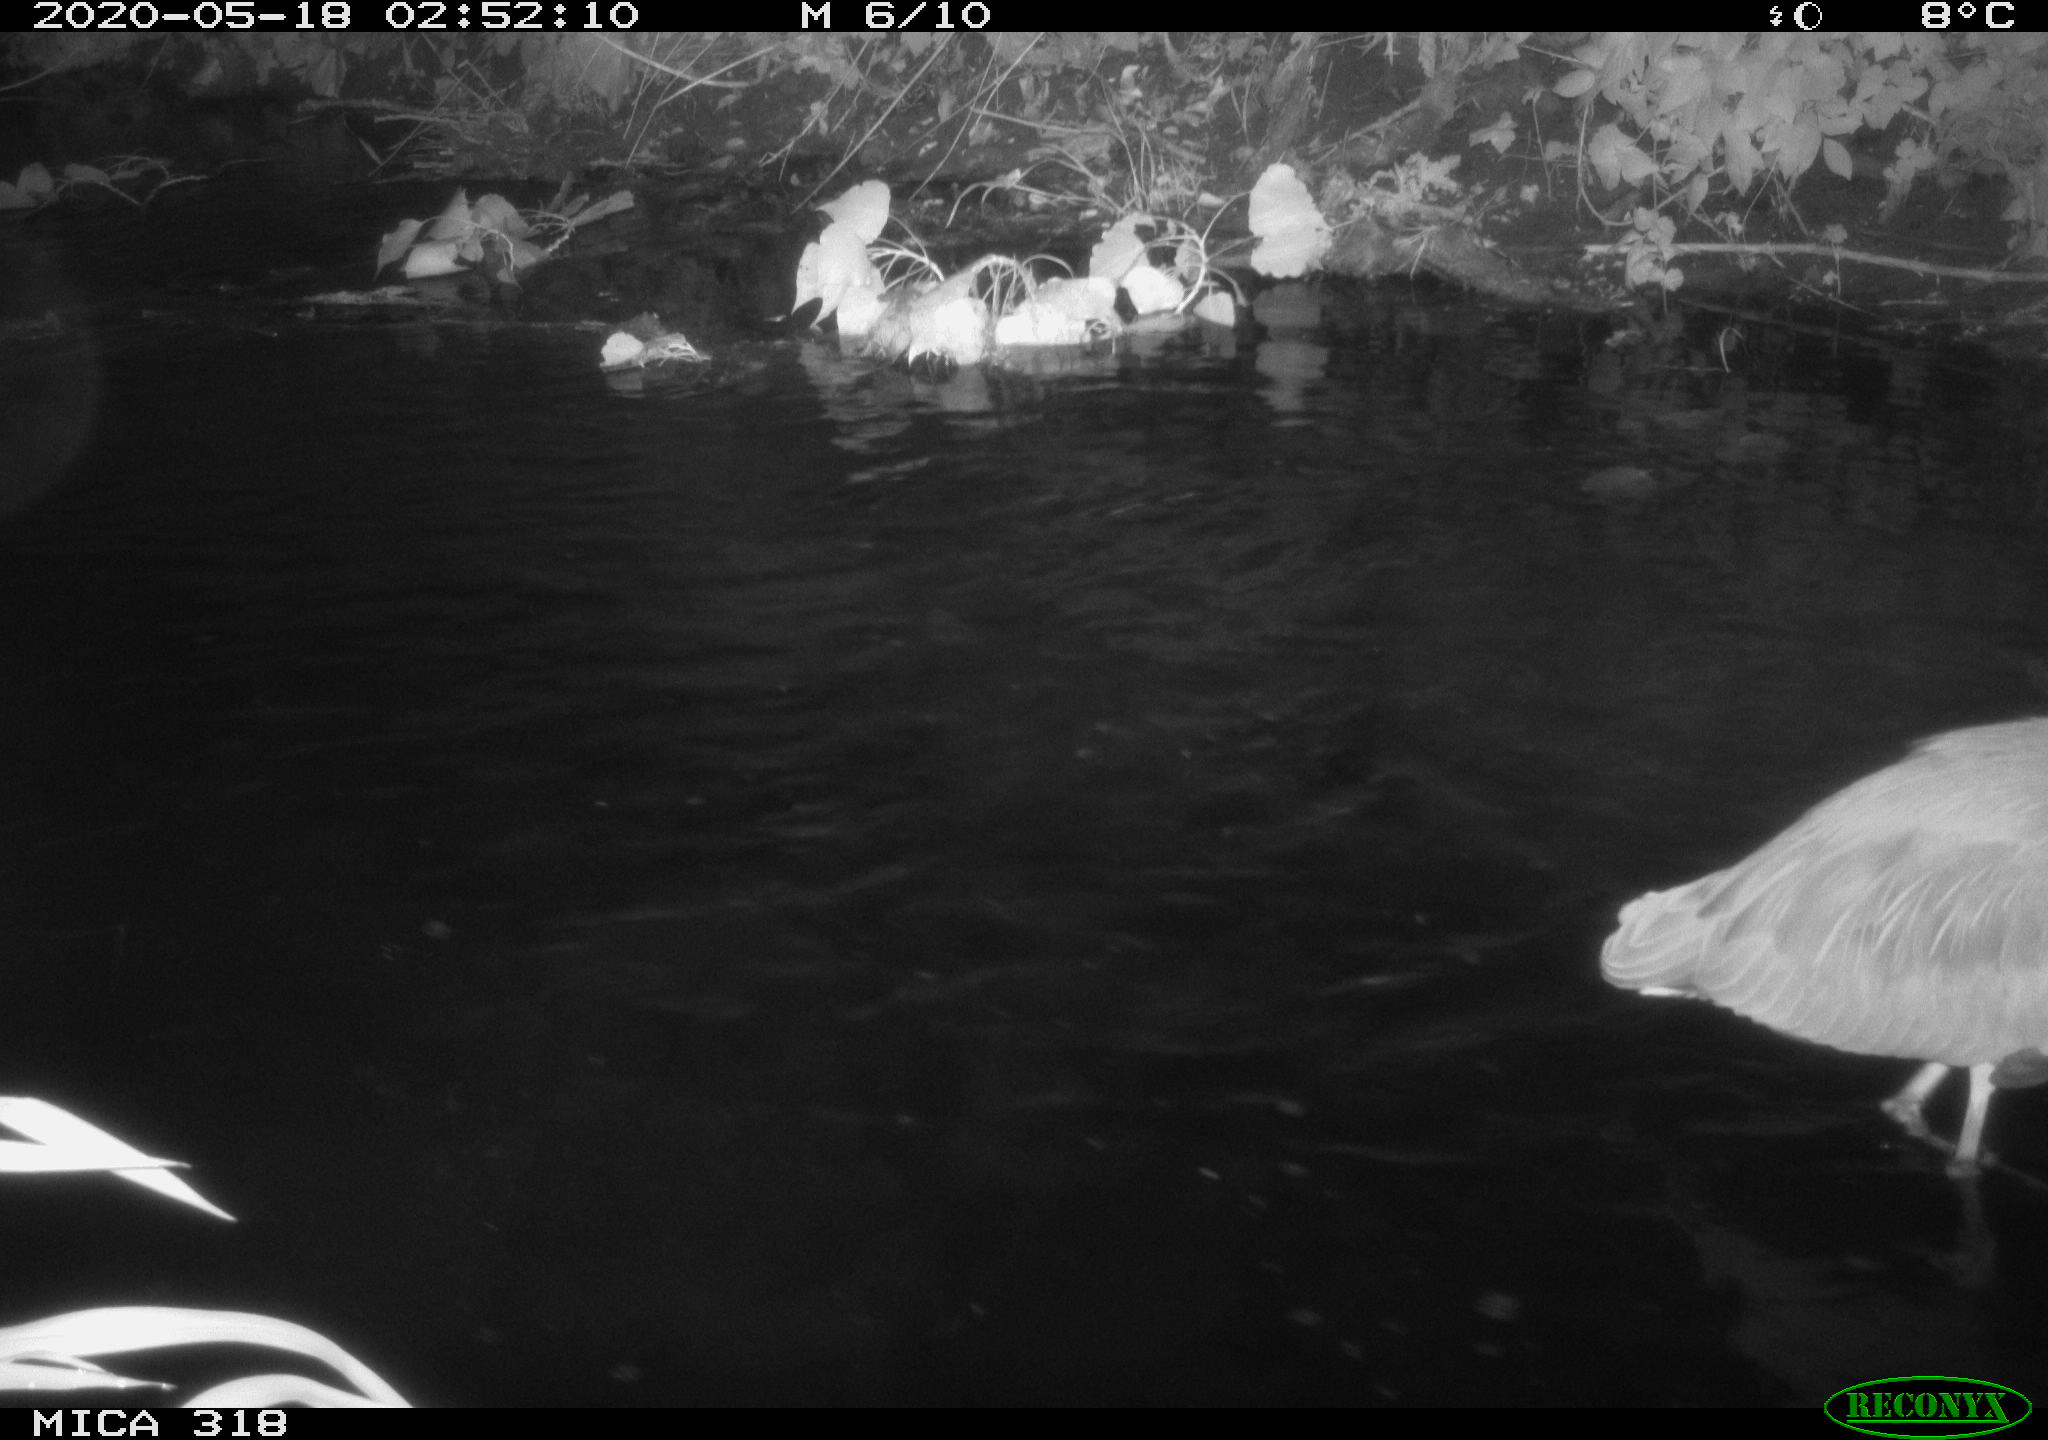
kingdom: Animalia
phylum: Chordata
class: Aves
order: Pelecaniformes
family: Ardeidae
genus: Ardea
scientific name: Ardea cinerea
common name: Grey heron
